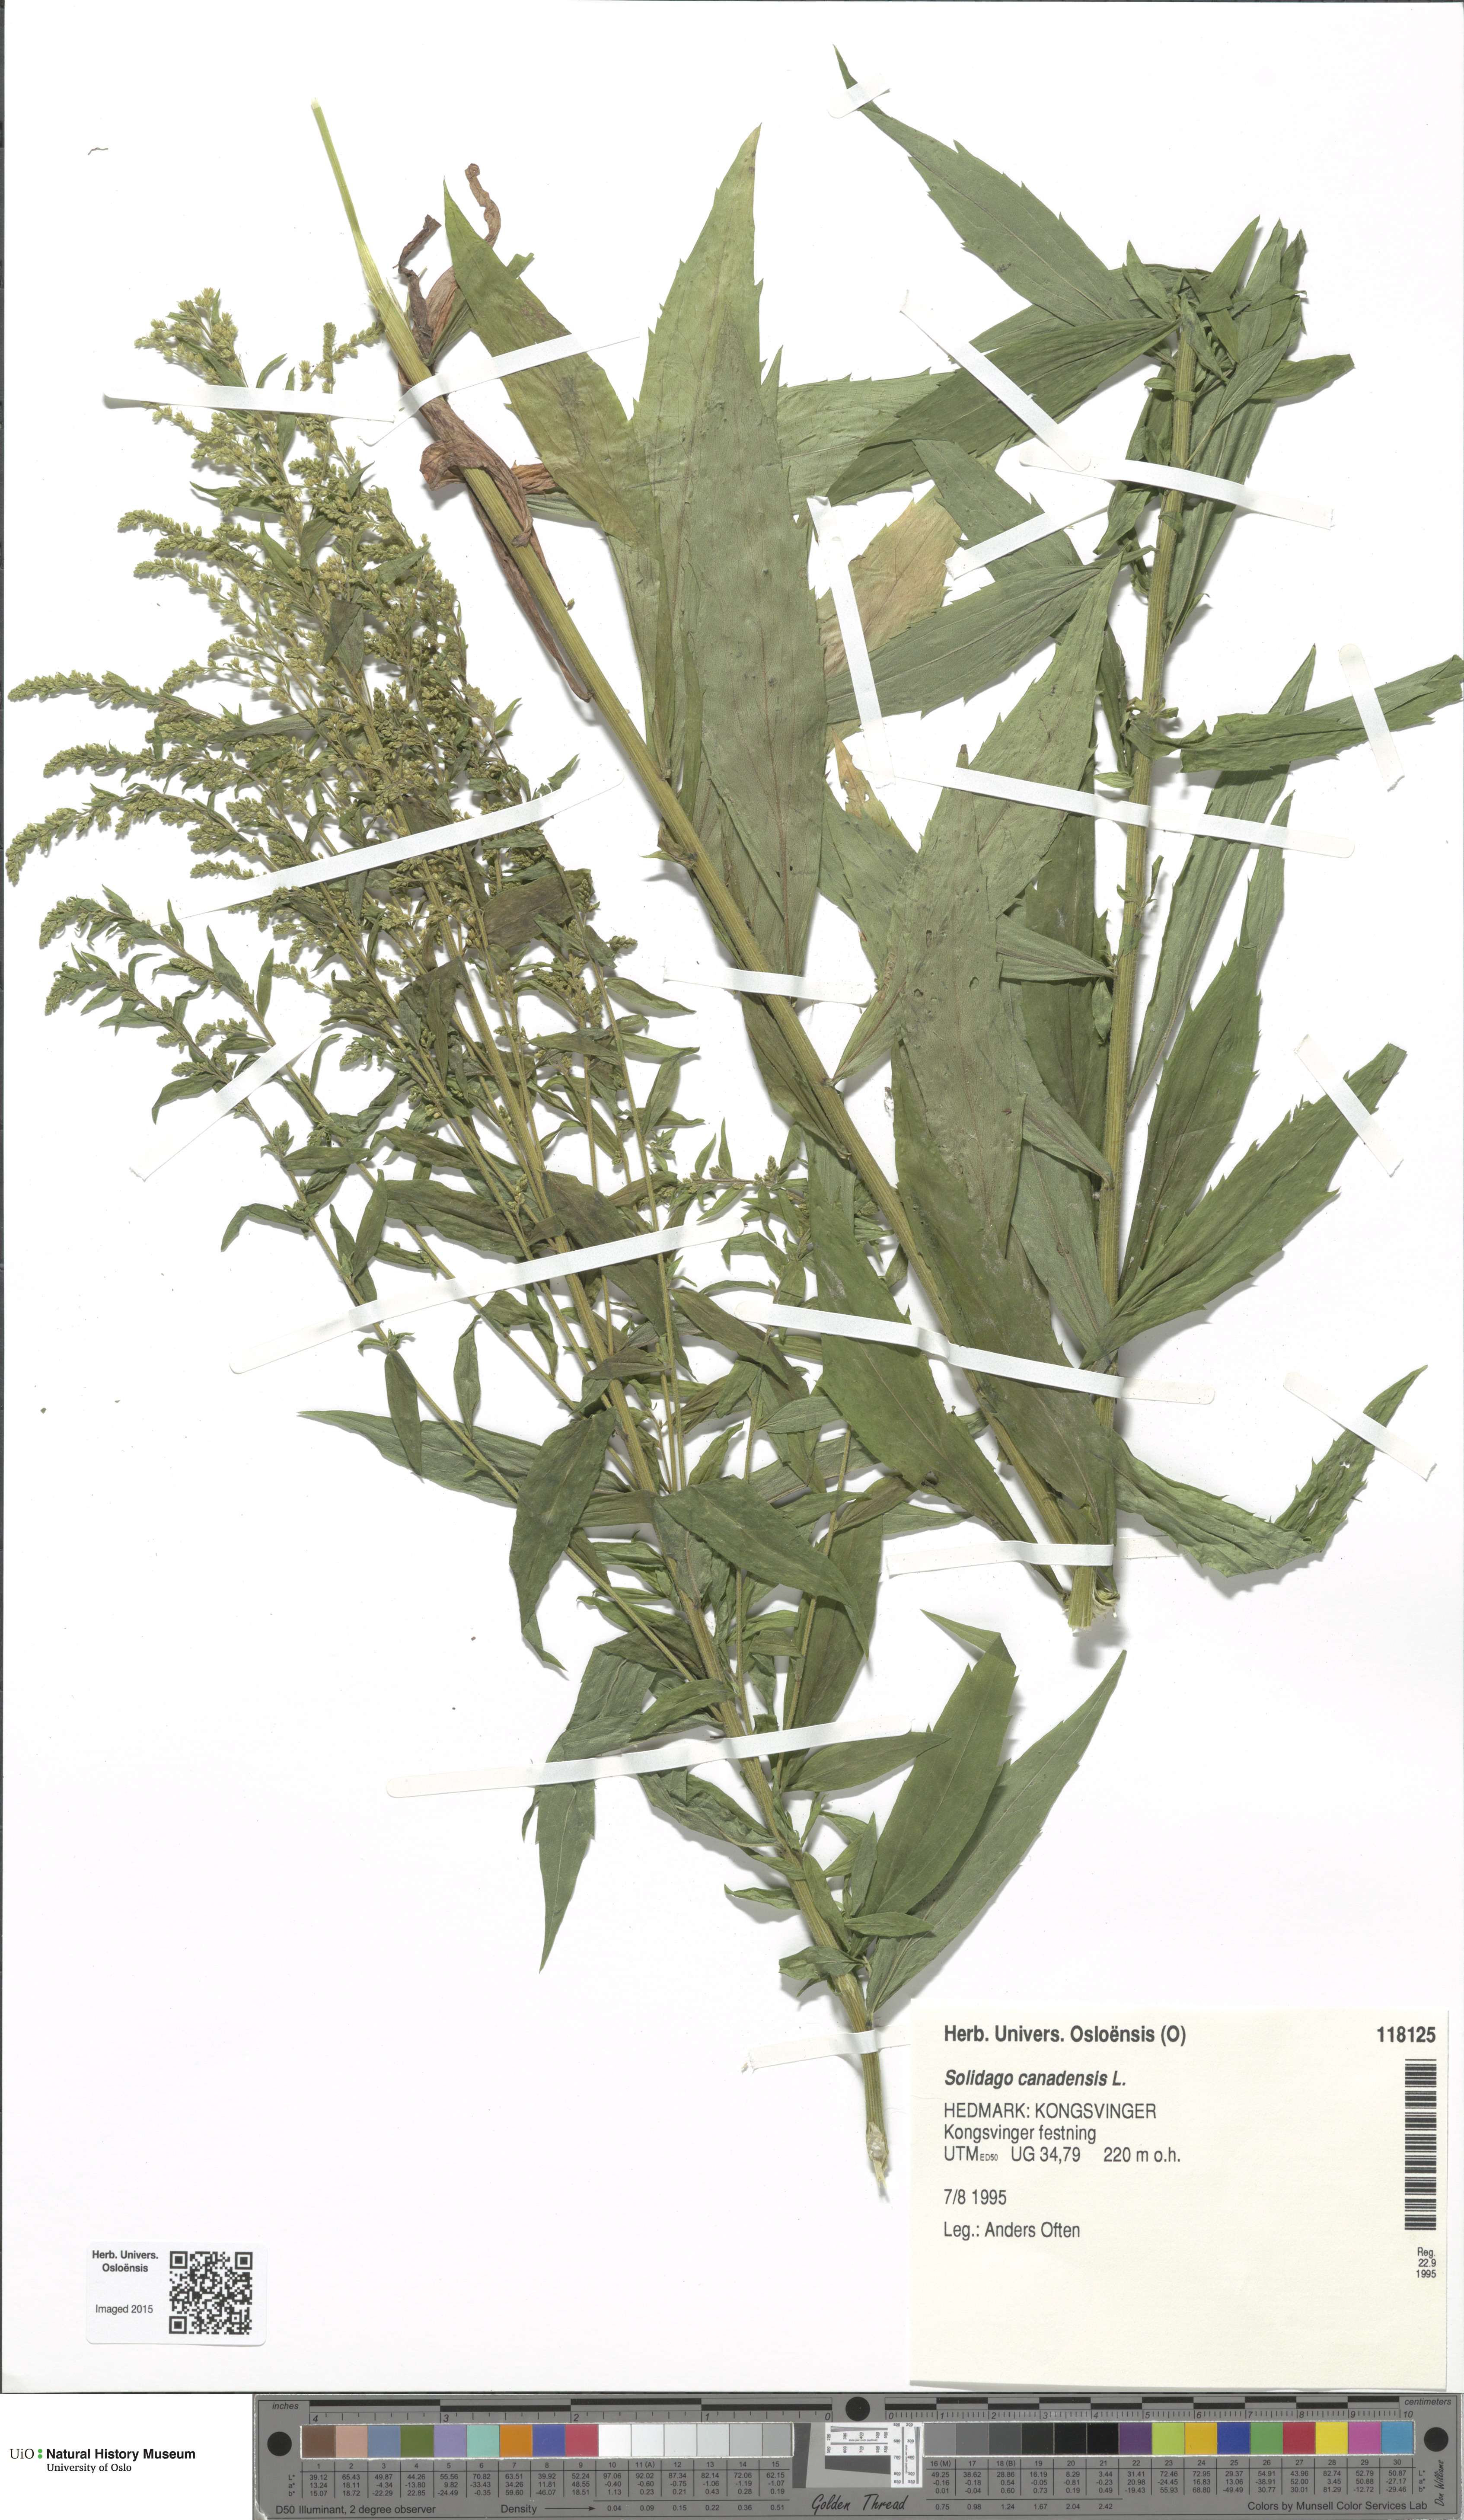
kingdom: Plantae
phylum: Tracheophyta
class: Magnoliopsida
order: Asterales
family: Asteraceae
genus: Solidago
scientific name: Solidago canadensis
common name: Canada goldenrod
